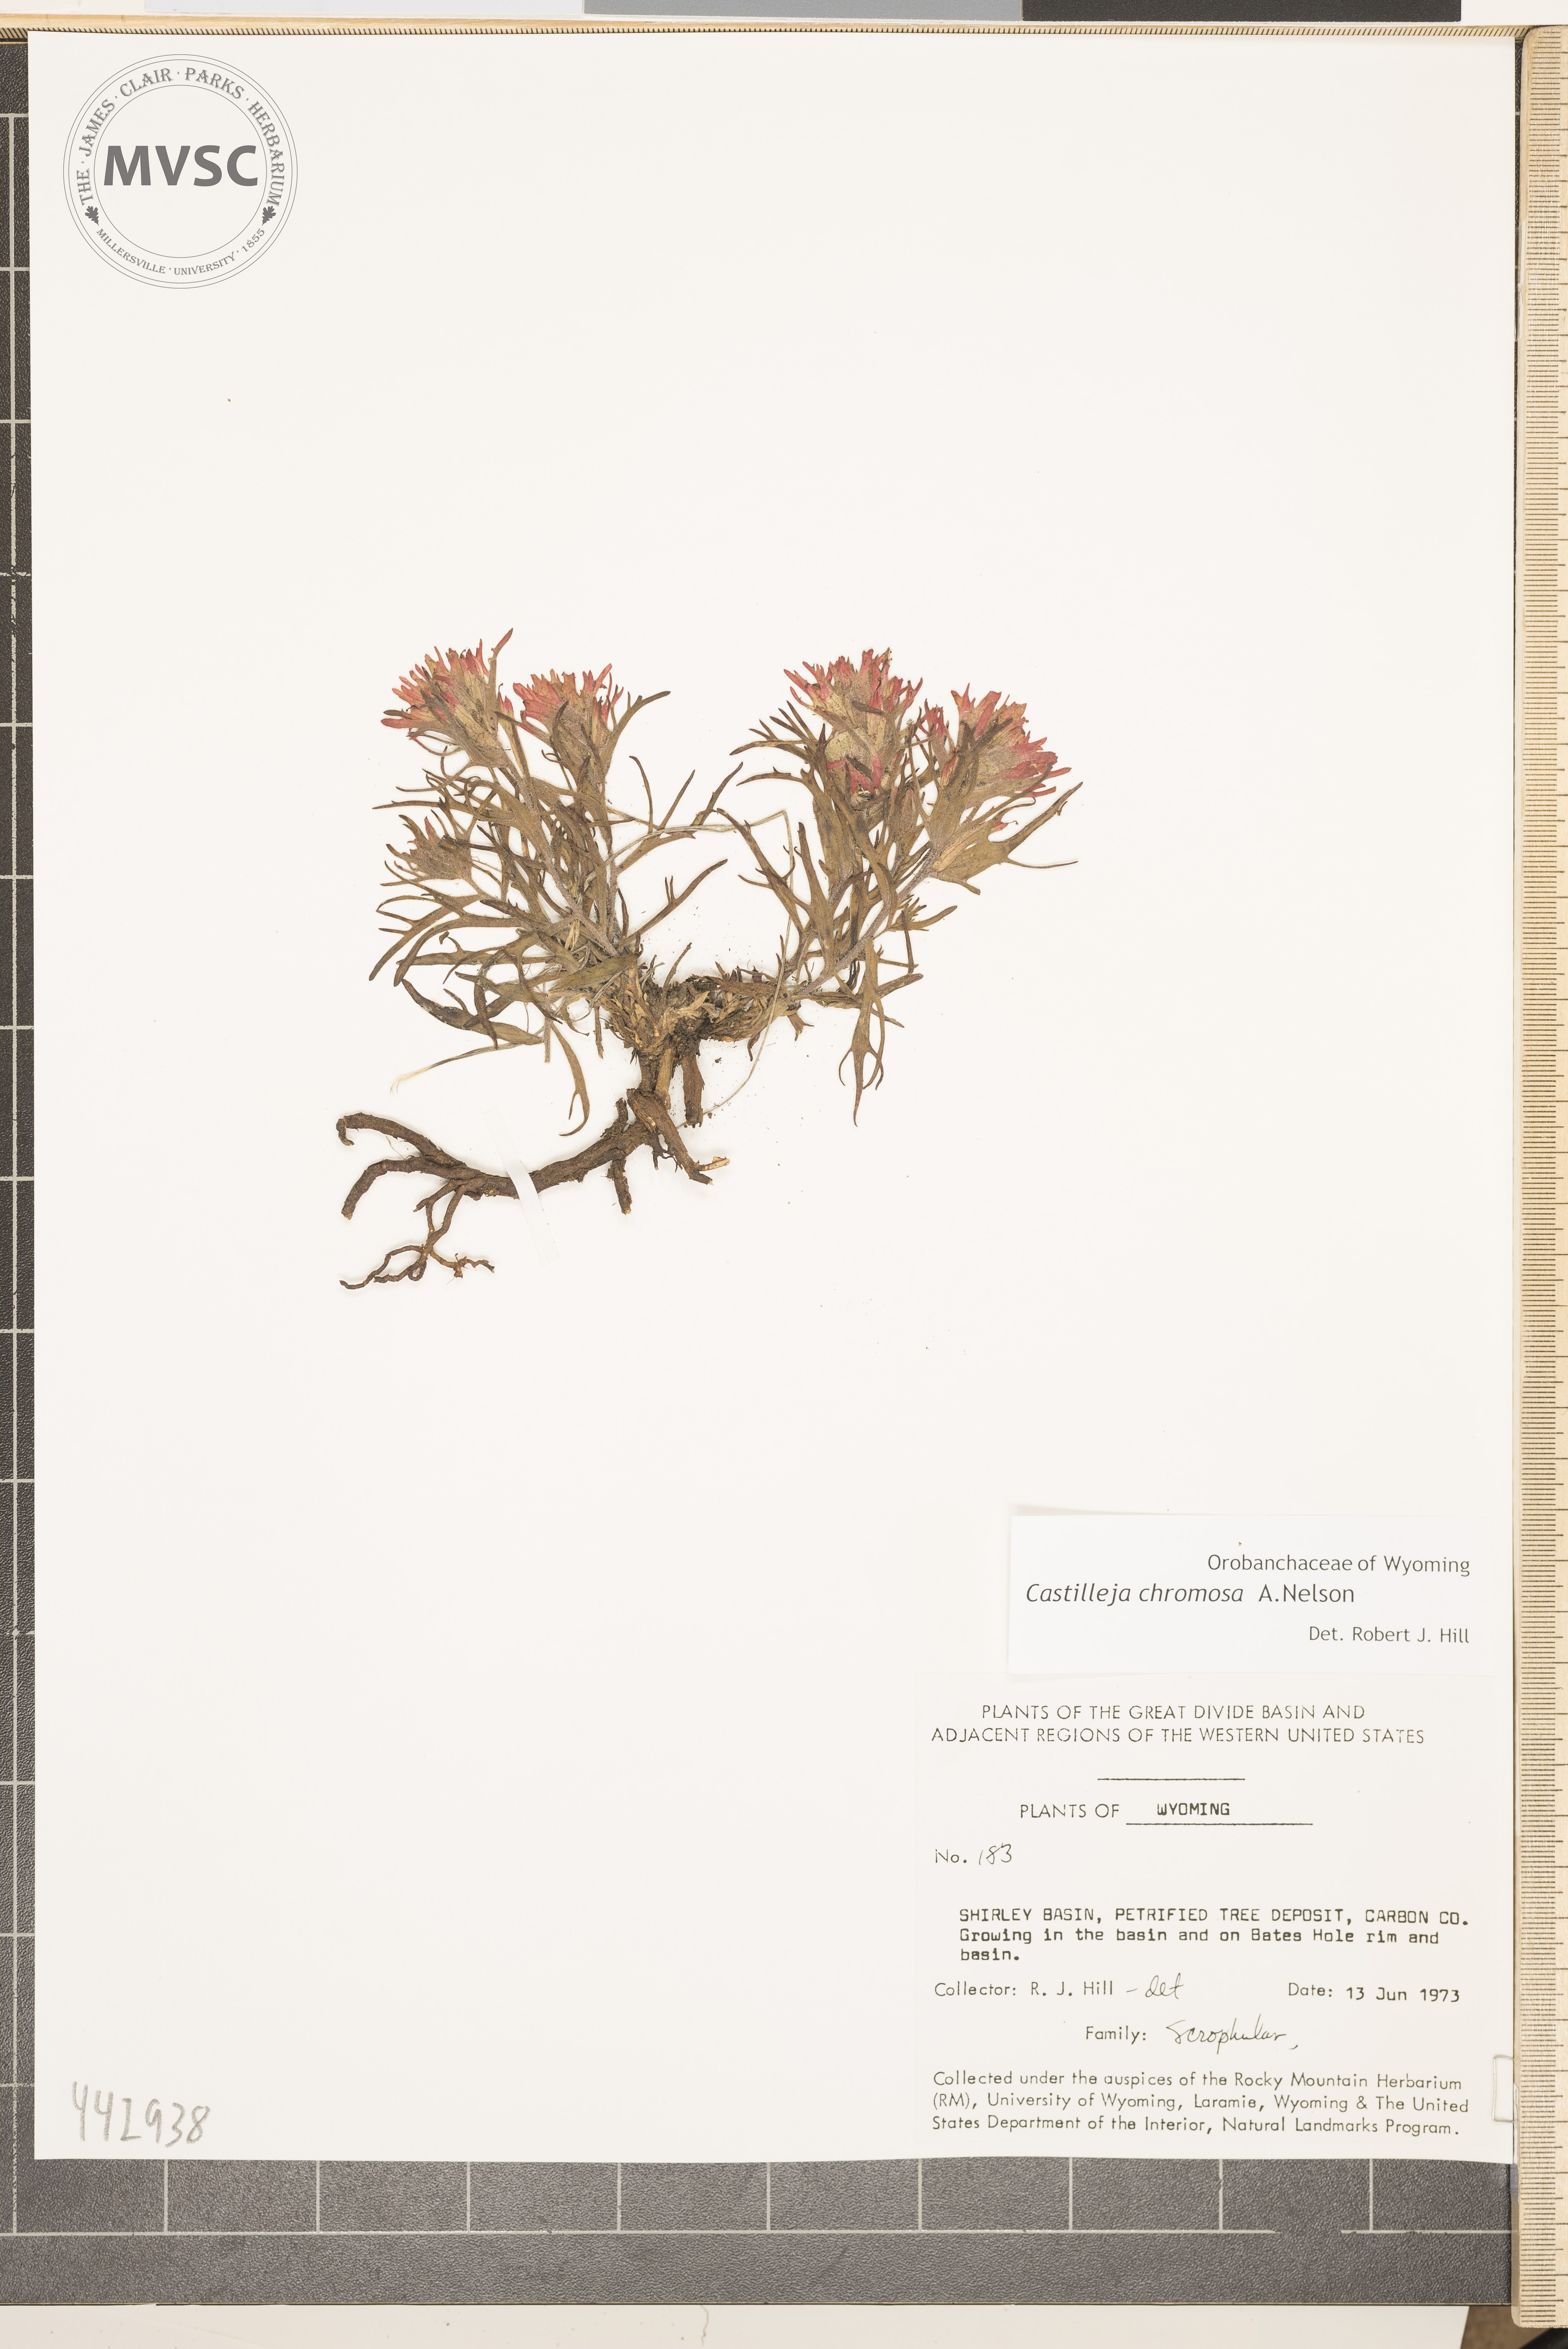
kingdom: Plantae
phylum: Tracheophyta
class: Magnoliopsida
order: Lamiales
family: Orobanchaceae
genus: Castilleja
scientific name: Castilleja chromosa
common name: Desert paintbrush
